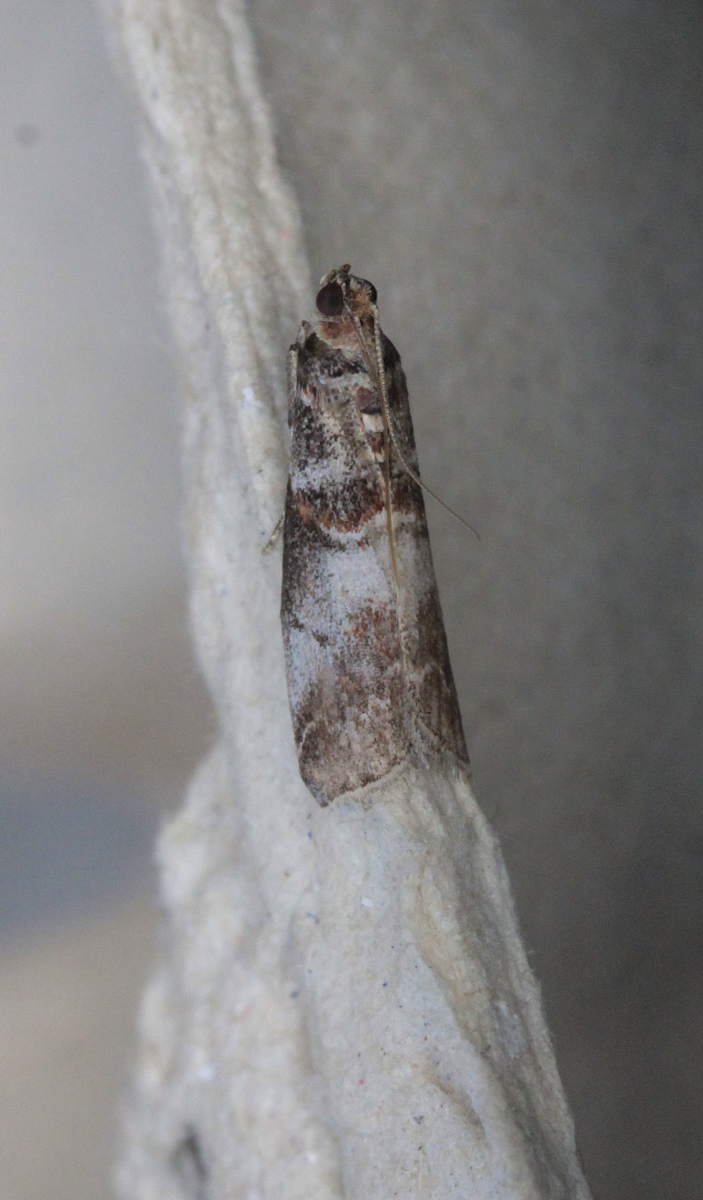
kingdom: Animalia
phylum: Arthropoda
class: Insecta
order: Lepidoptera
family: Pyralidae
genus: Acrobasis
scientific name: Acrobasis advenella
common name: Grey knot-horn
